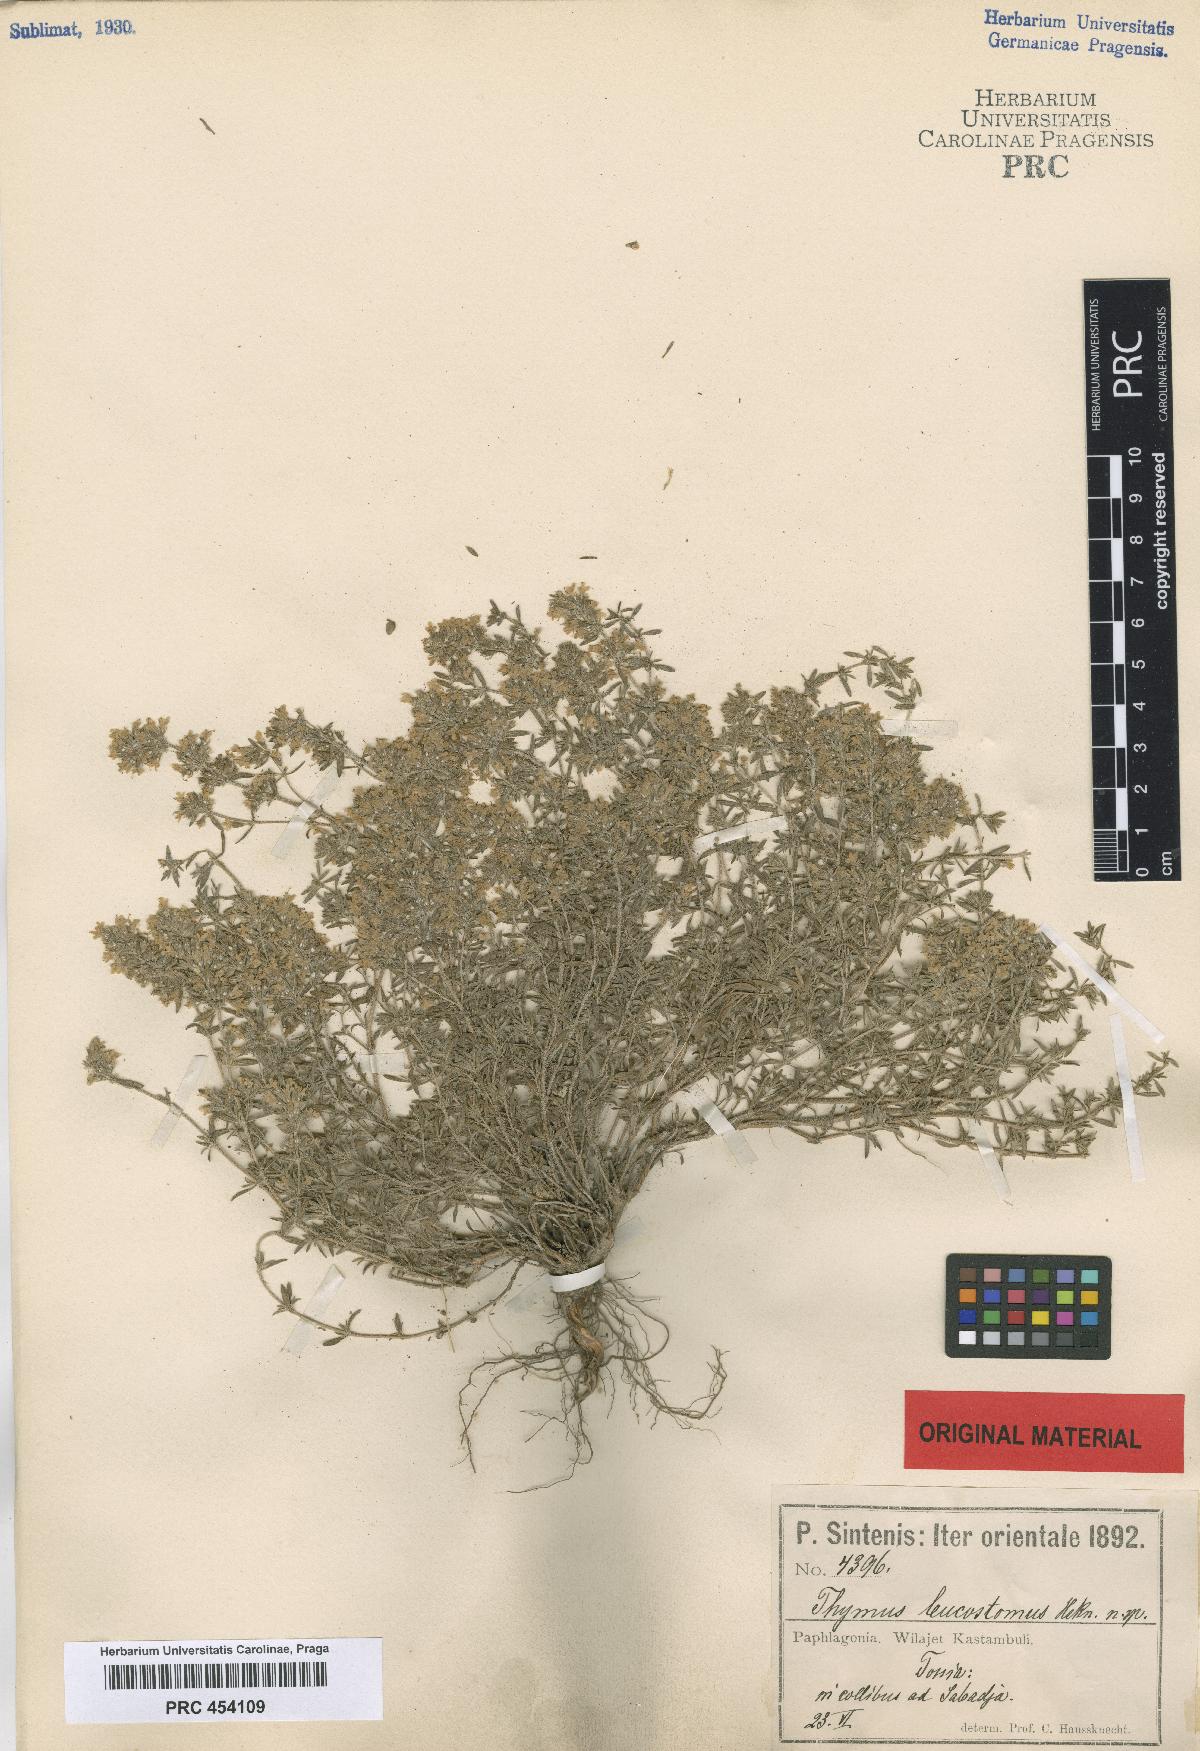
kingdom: Plantae
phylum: Tracheophyta
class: Magnoliopsida
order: Lamiales
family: Lamiaceae
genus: Thymus
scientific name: Thymus leucostomus
